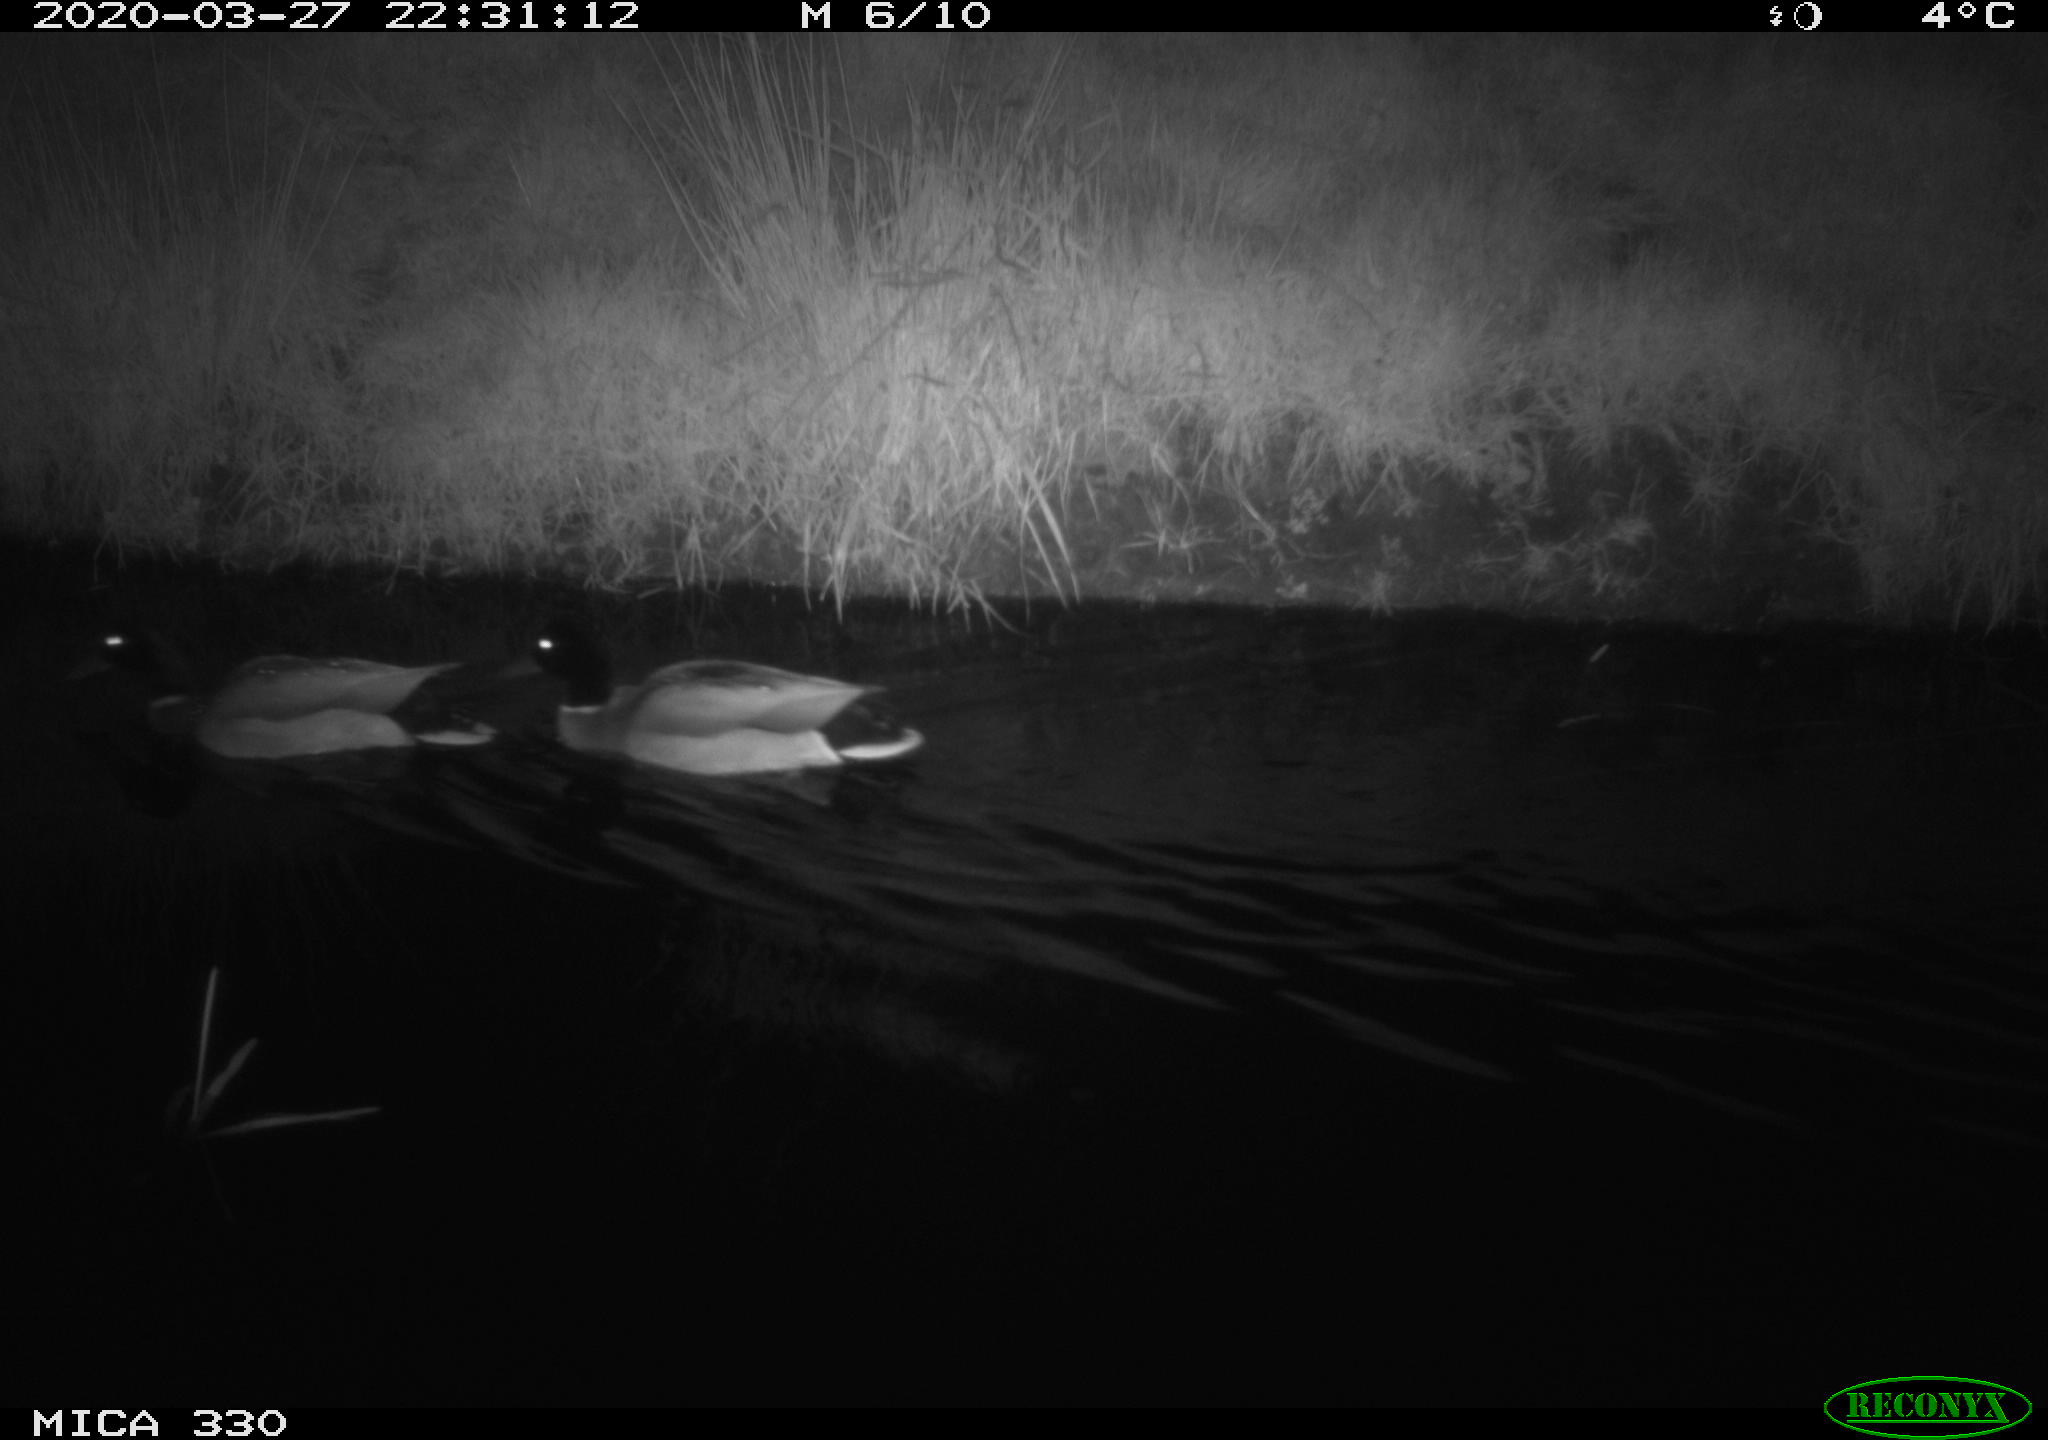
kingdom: Animalia
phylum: Chordata
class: Aves
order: Anseriformes
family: Anatidae
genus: Anas
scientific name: Anas platyrhynchos
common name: Mallard
